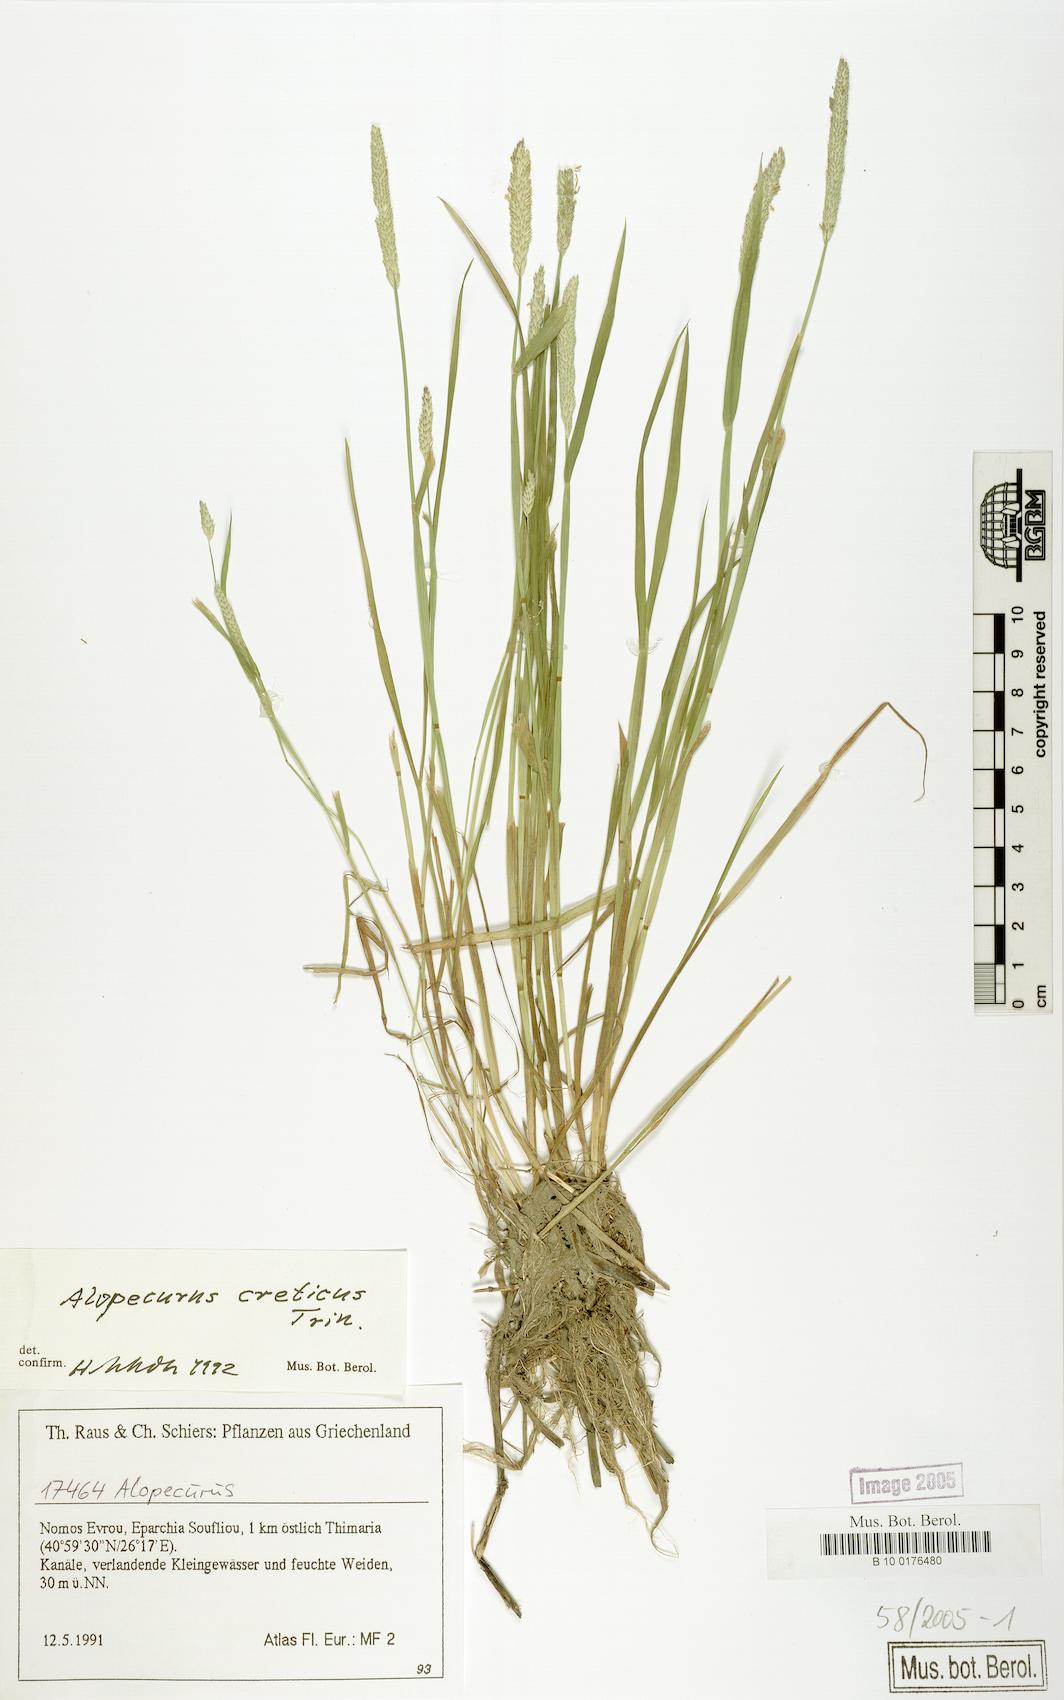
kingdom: Plantae
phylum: Tracheophyta
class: Liliopsida
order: Poales
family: Poaceae
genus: Alopecurus
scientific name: Alopecurus creticus
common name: Cretan meadow foxtail
